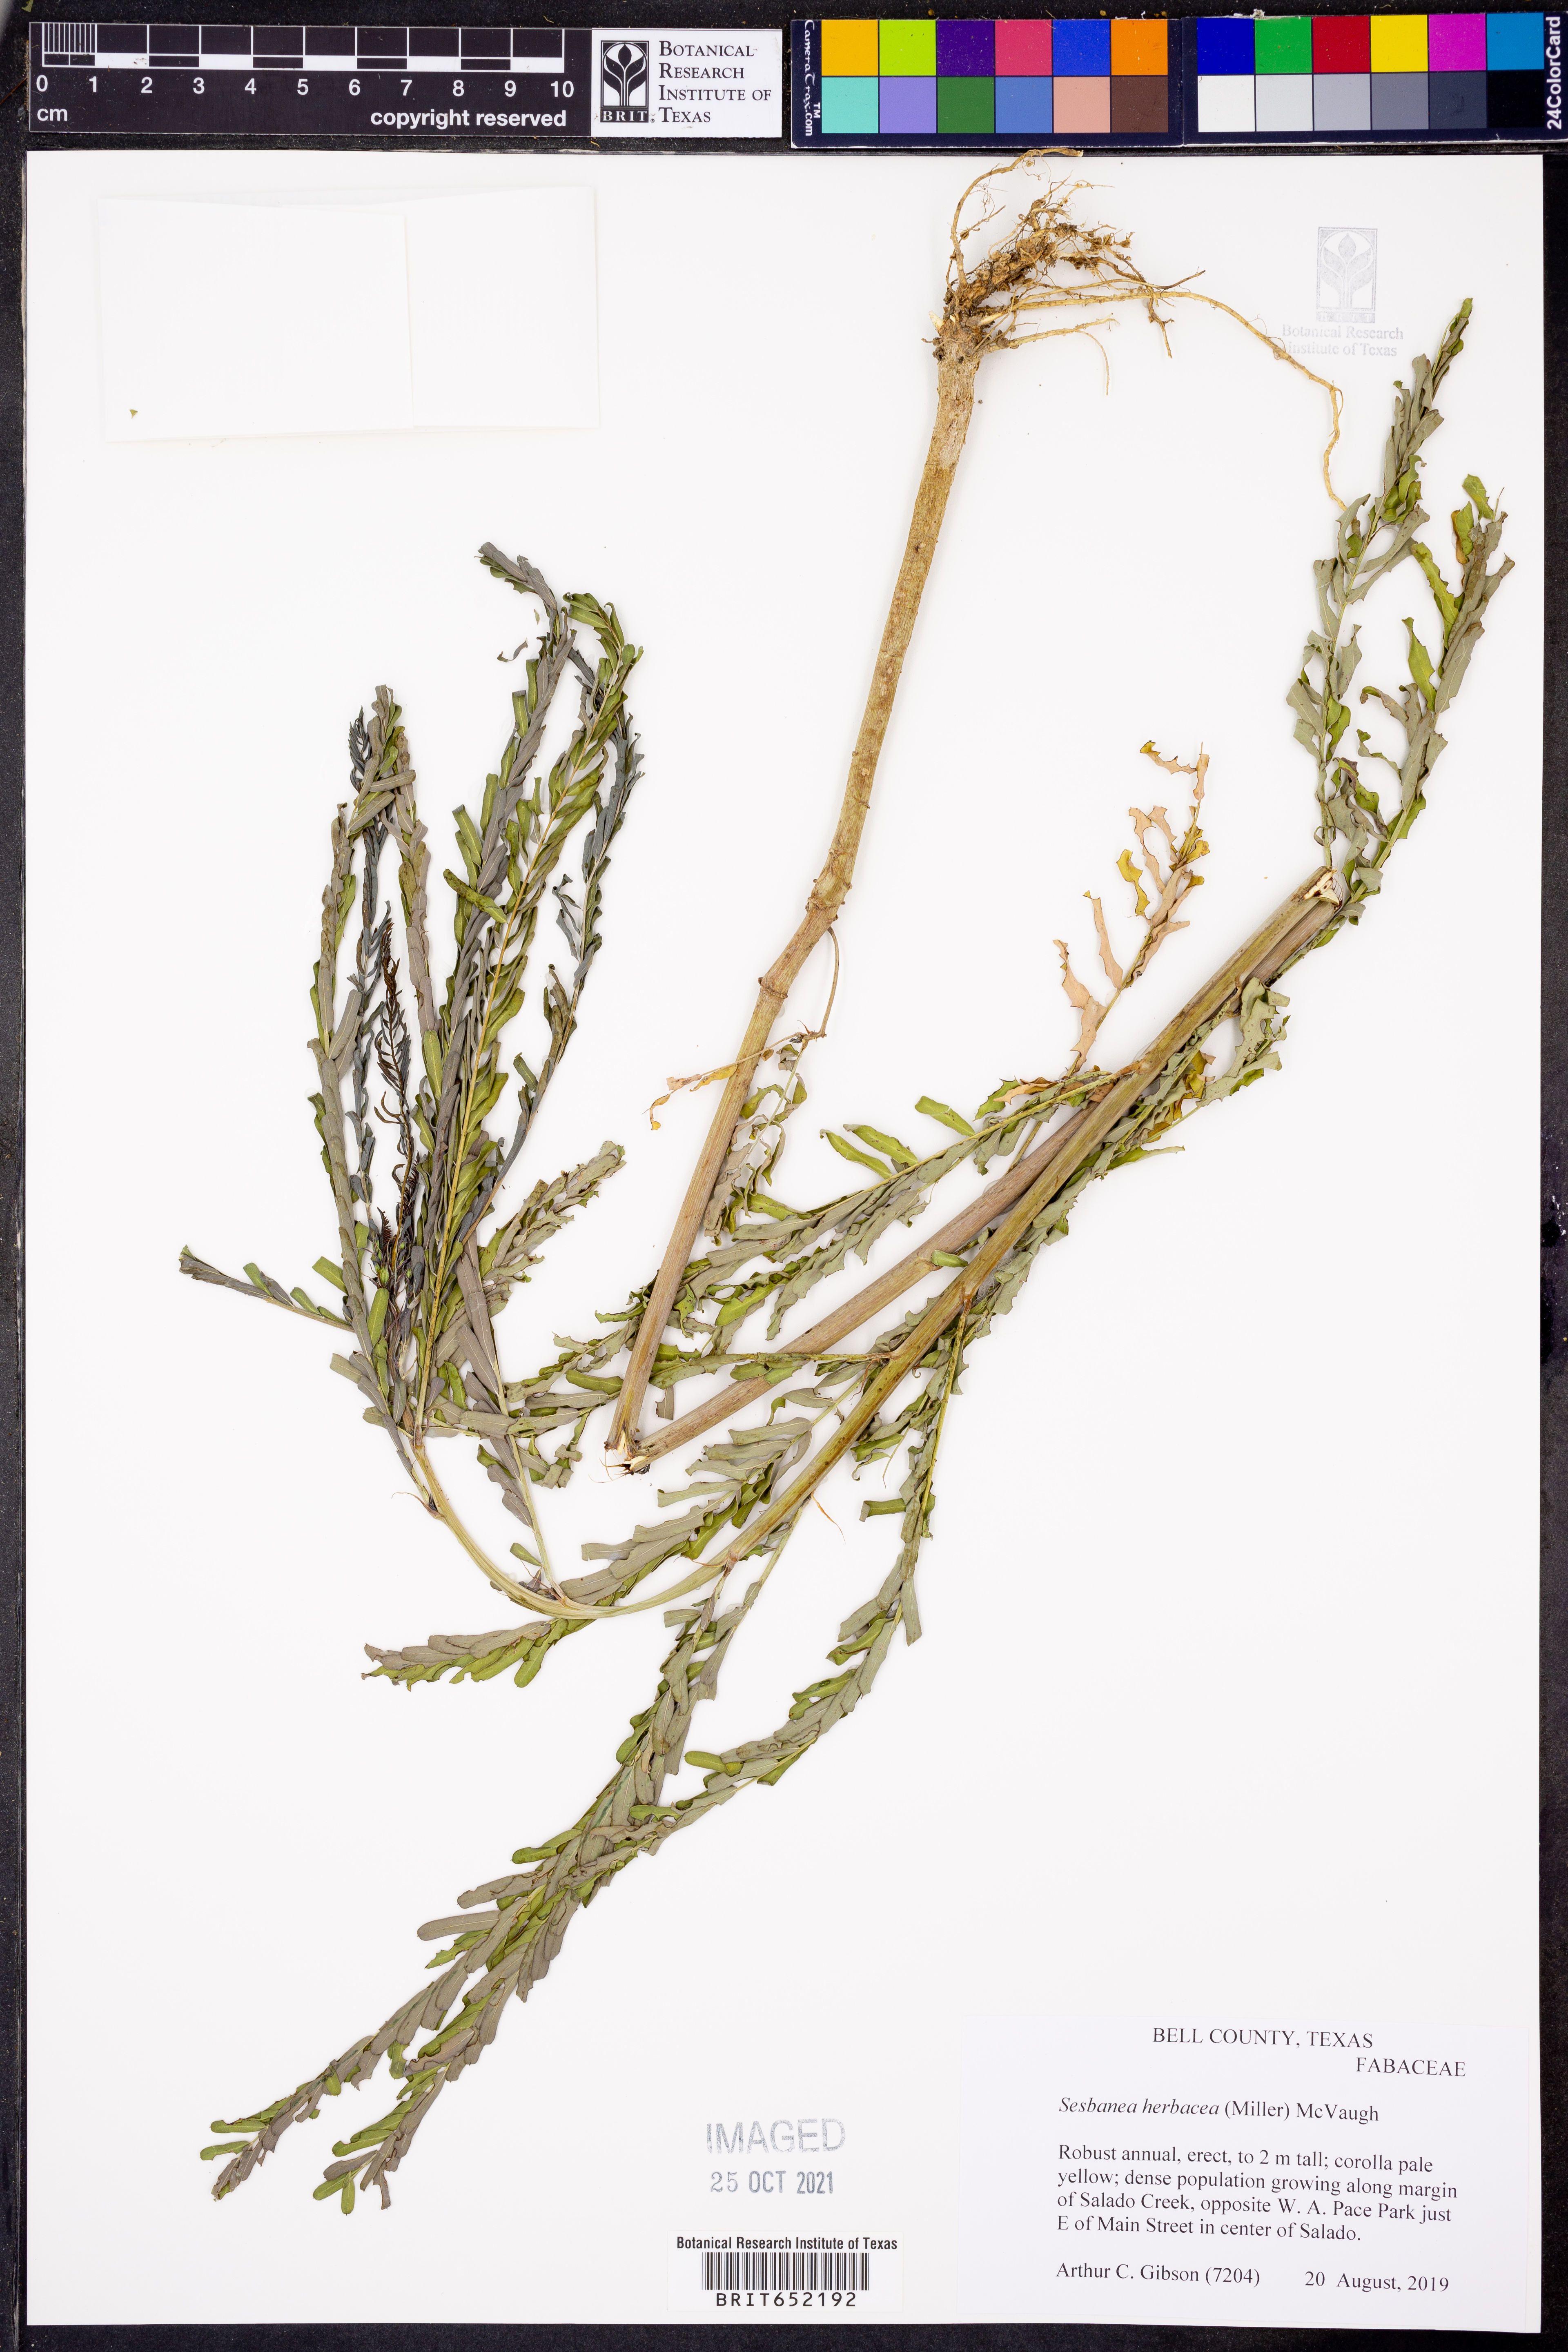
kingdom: Plantae
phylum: Tracheophyta
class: Magnoliopsida
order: Fabales
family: Fabaceae
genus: Sesbania
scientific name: Sesbania herbacea
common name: Bigpod sesbania
